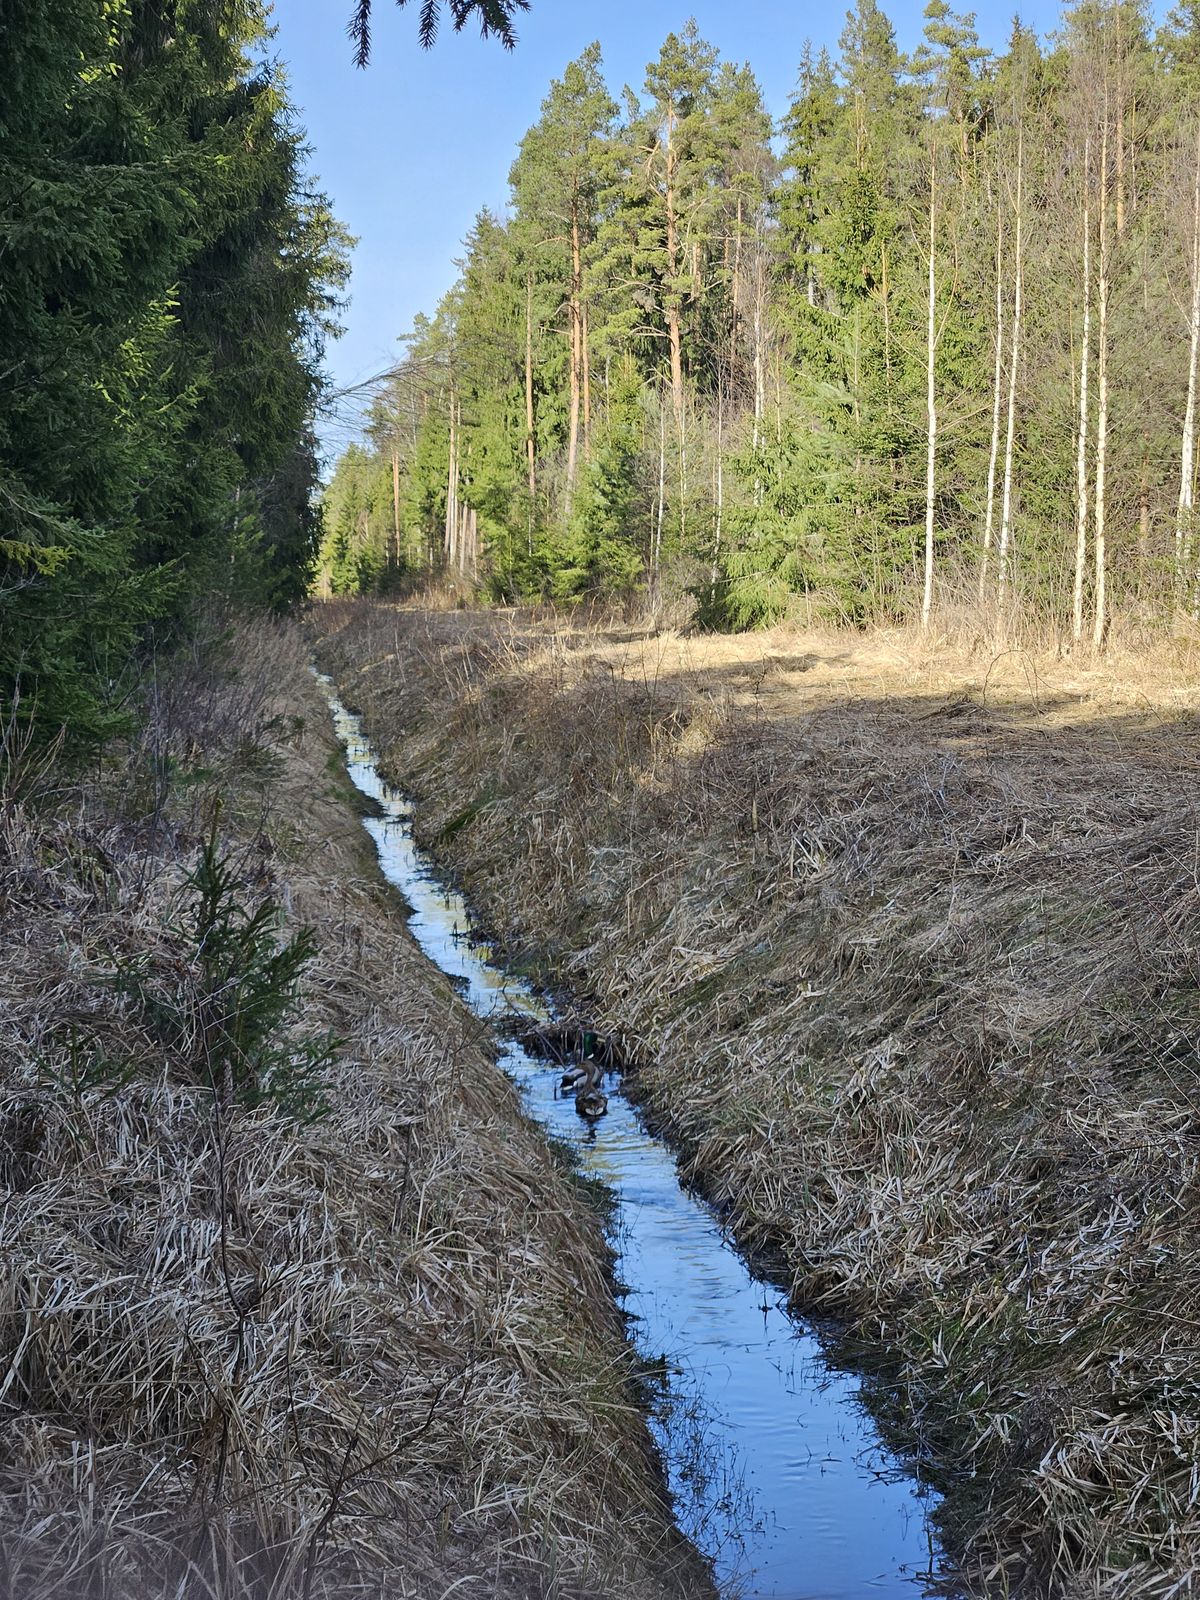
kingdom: Animalia
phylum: Chordata
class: Aves
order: Anseriformes
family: Anatidae
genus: Anas
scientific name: Anas platyrhynchos
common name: Mallard
